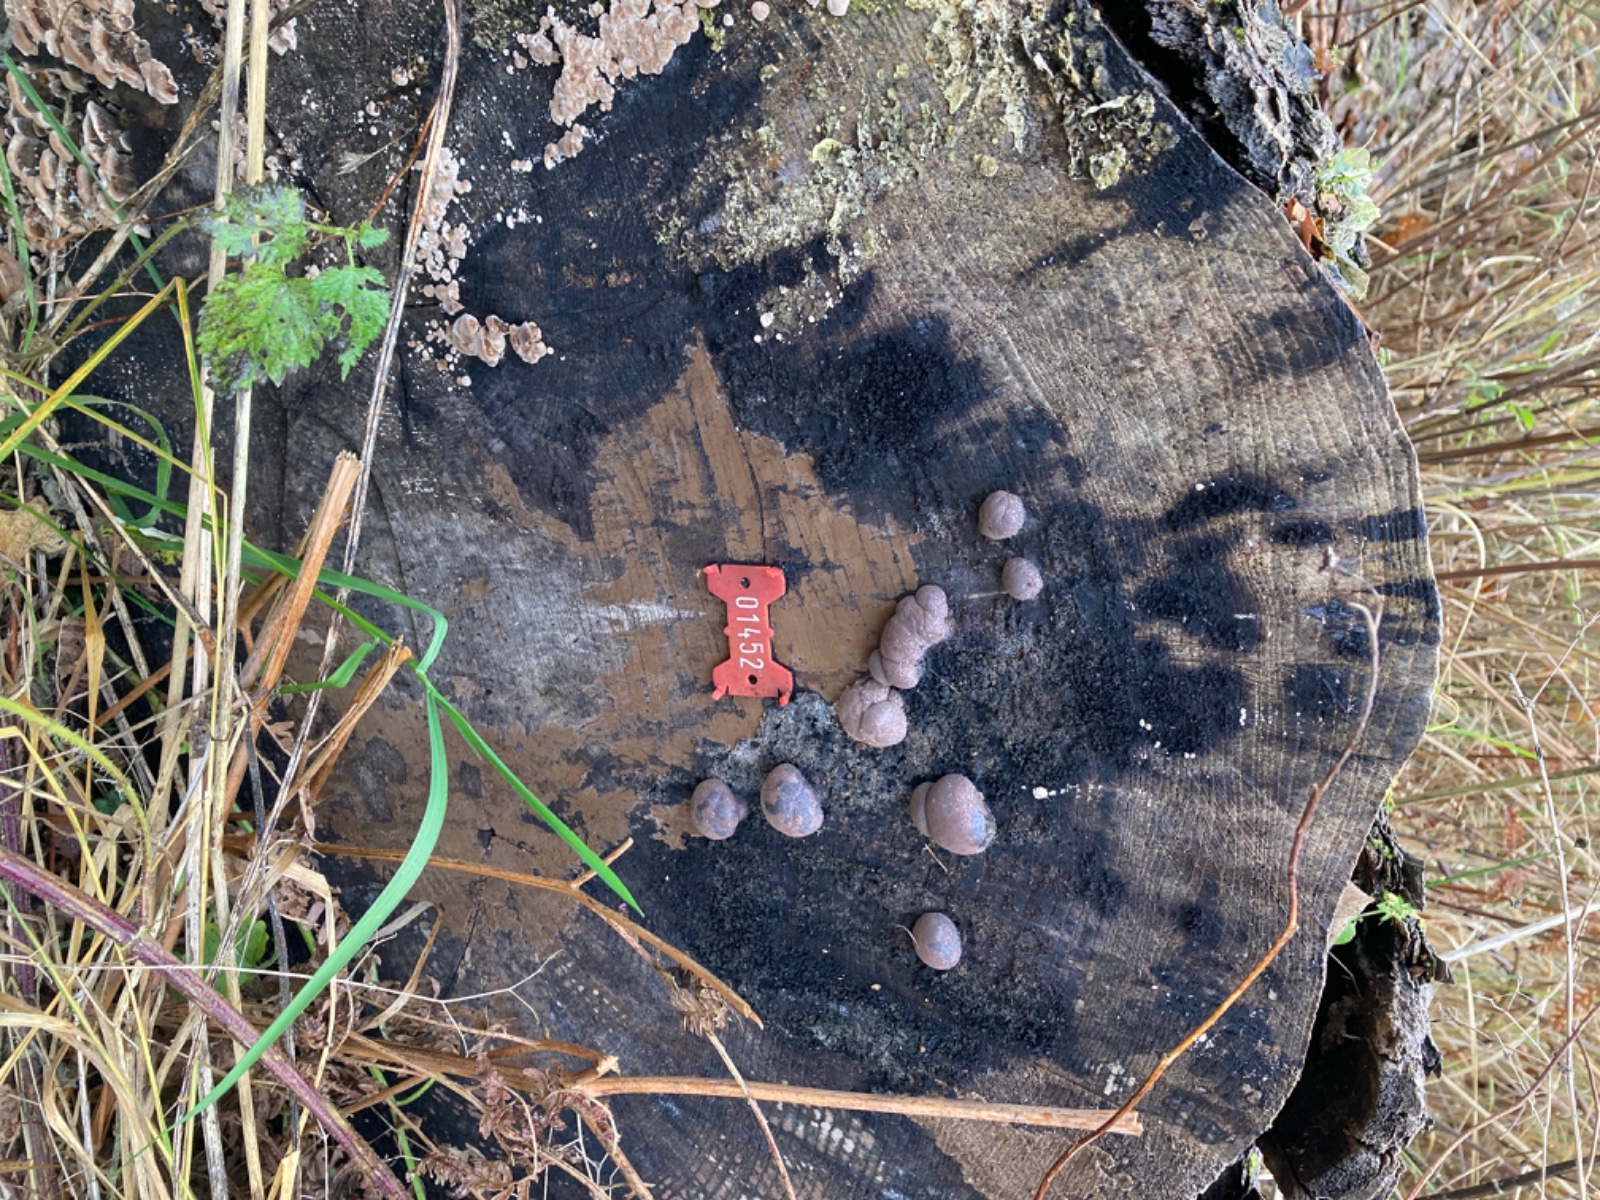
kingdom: Fungi
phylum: Ascomycota
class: Sordariomycetes
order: Xylariales
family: Hypoxylaceae
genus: Daldinia
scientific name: Daldinia concentrica
